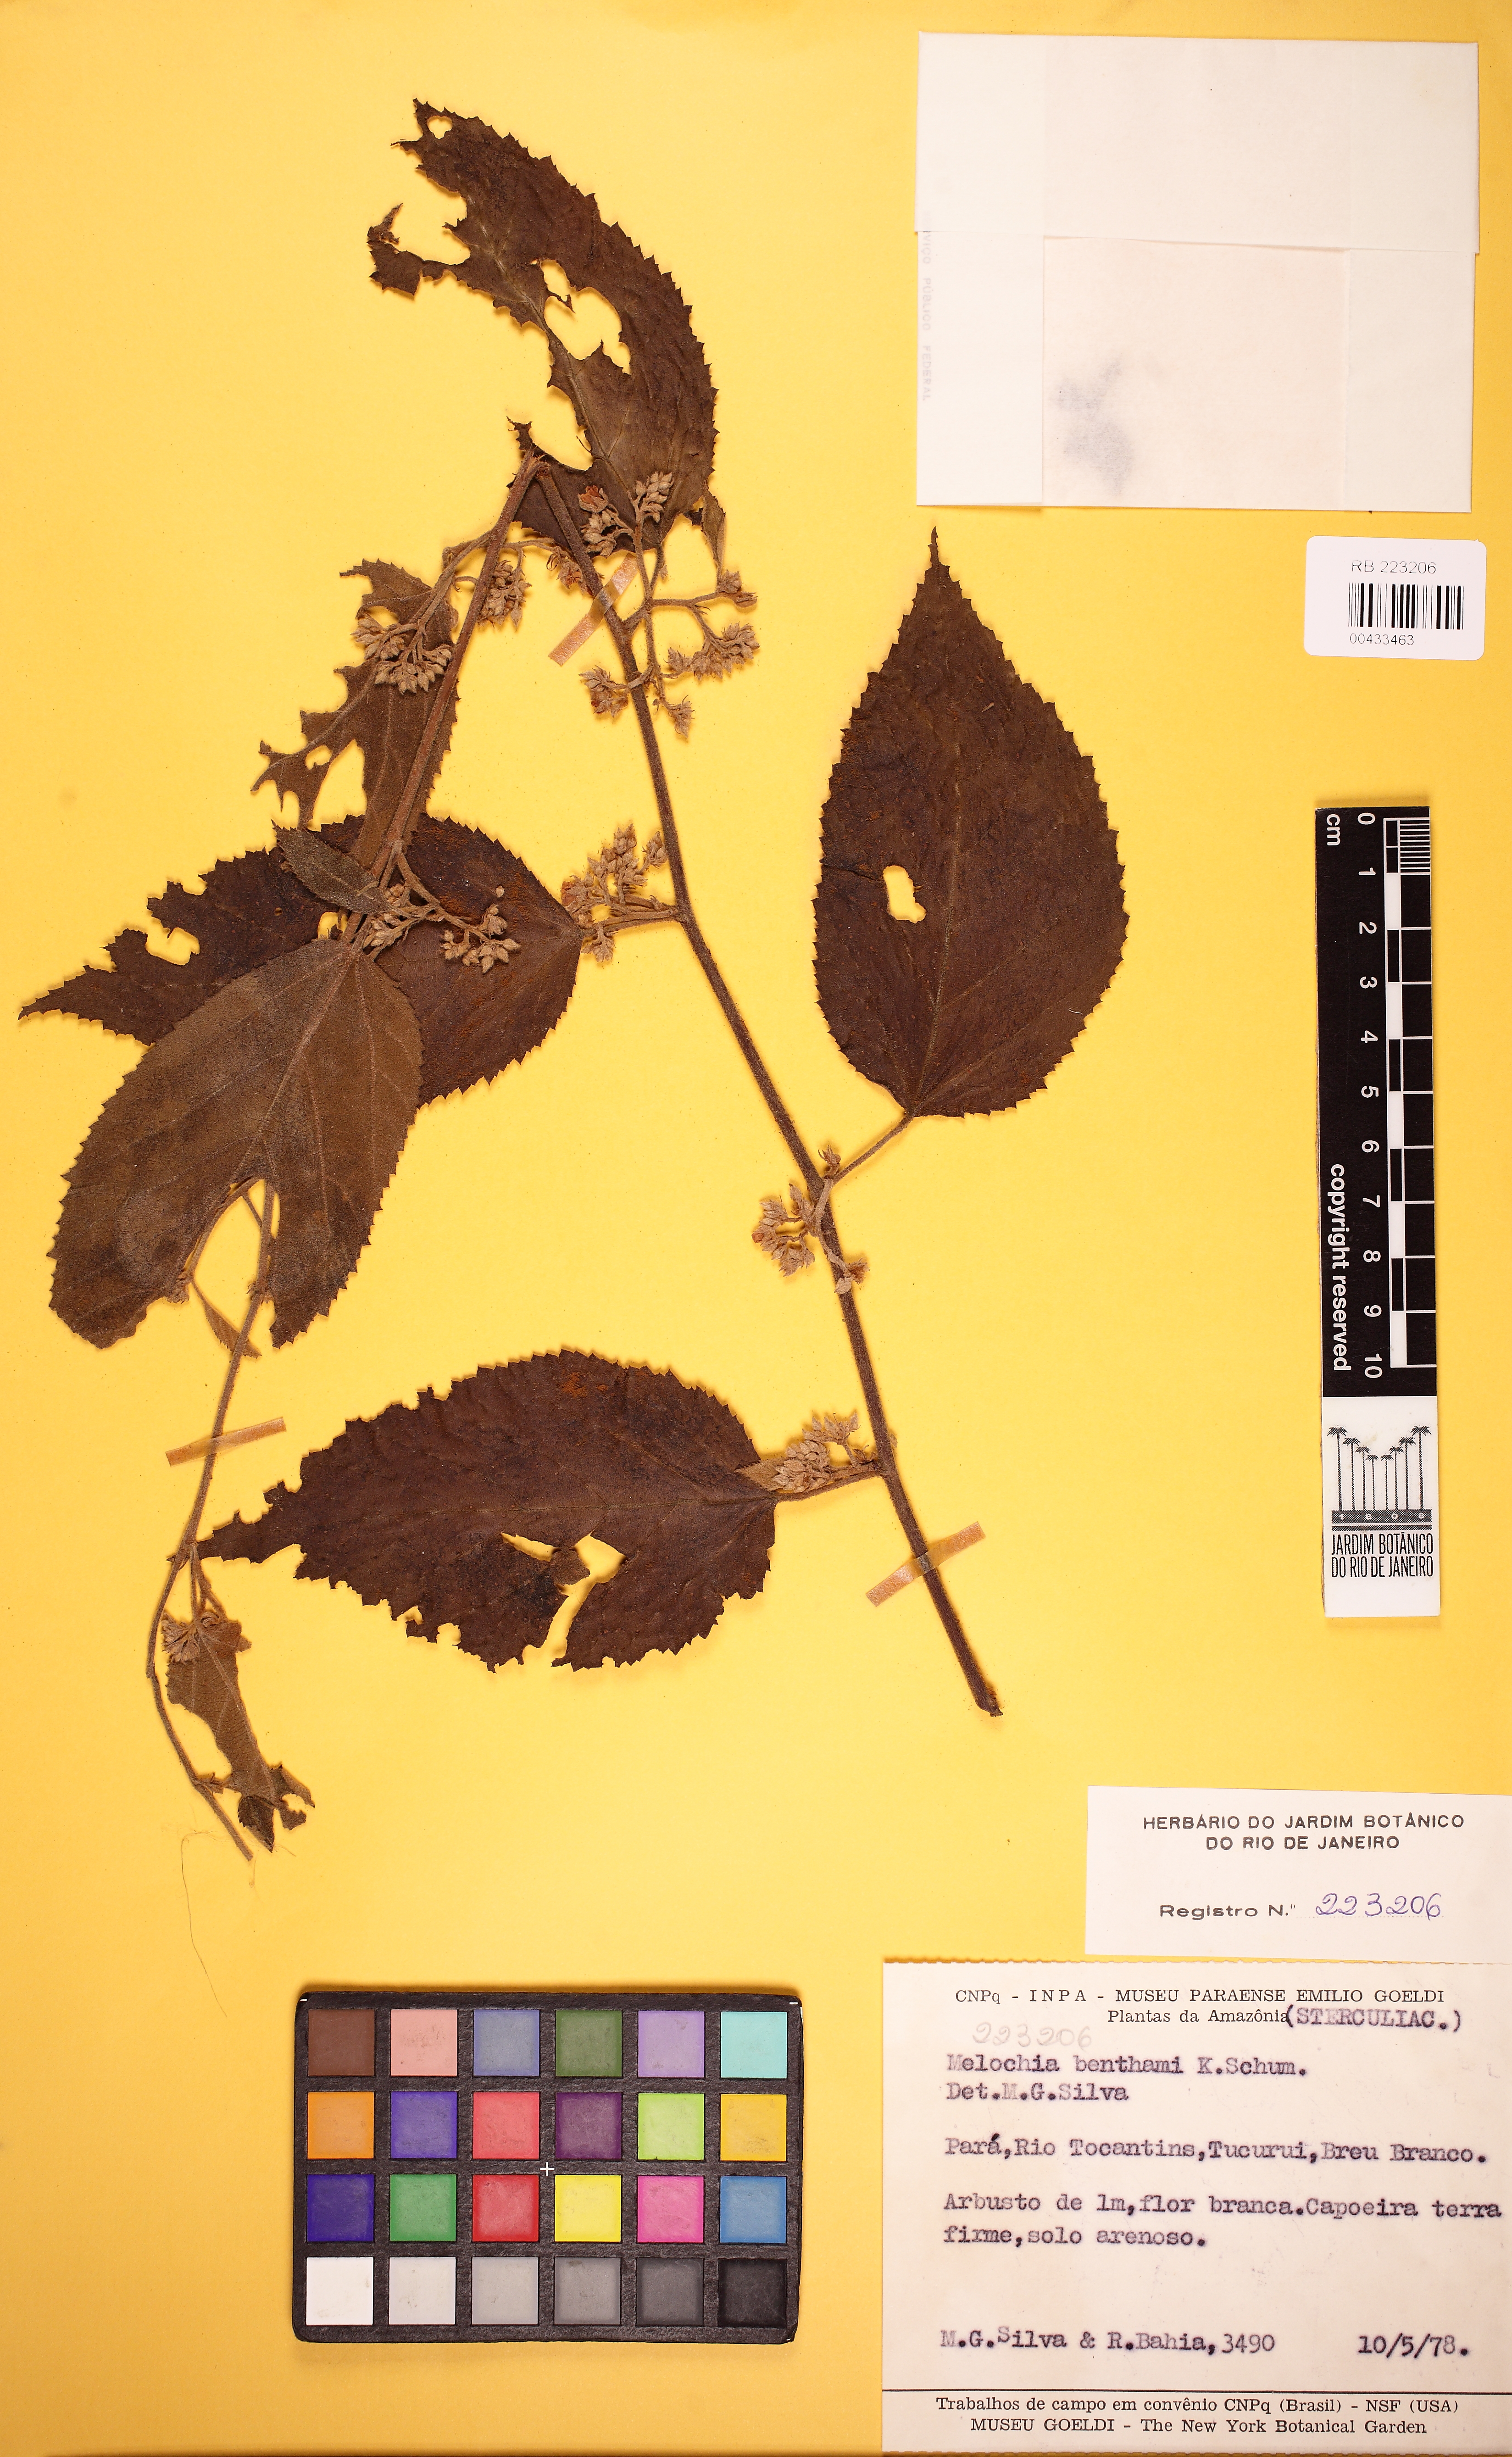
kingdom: Plantae
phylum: Tracheophyta
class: Magnoliopsida
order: Malvales
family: Malvaceae
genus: Melochia
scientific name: Melochia ulmifolia
